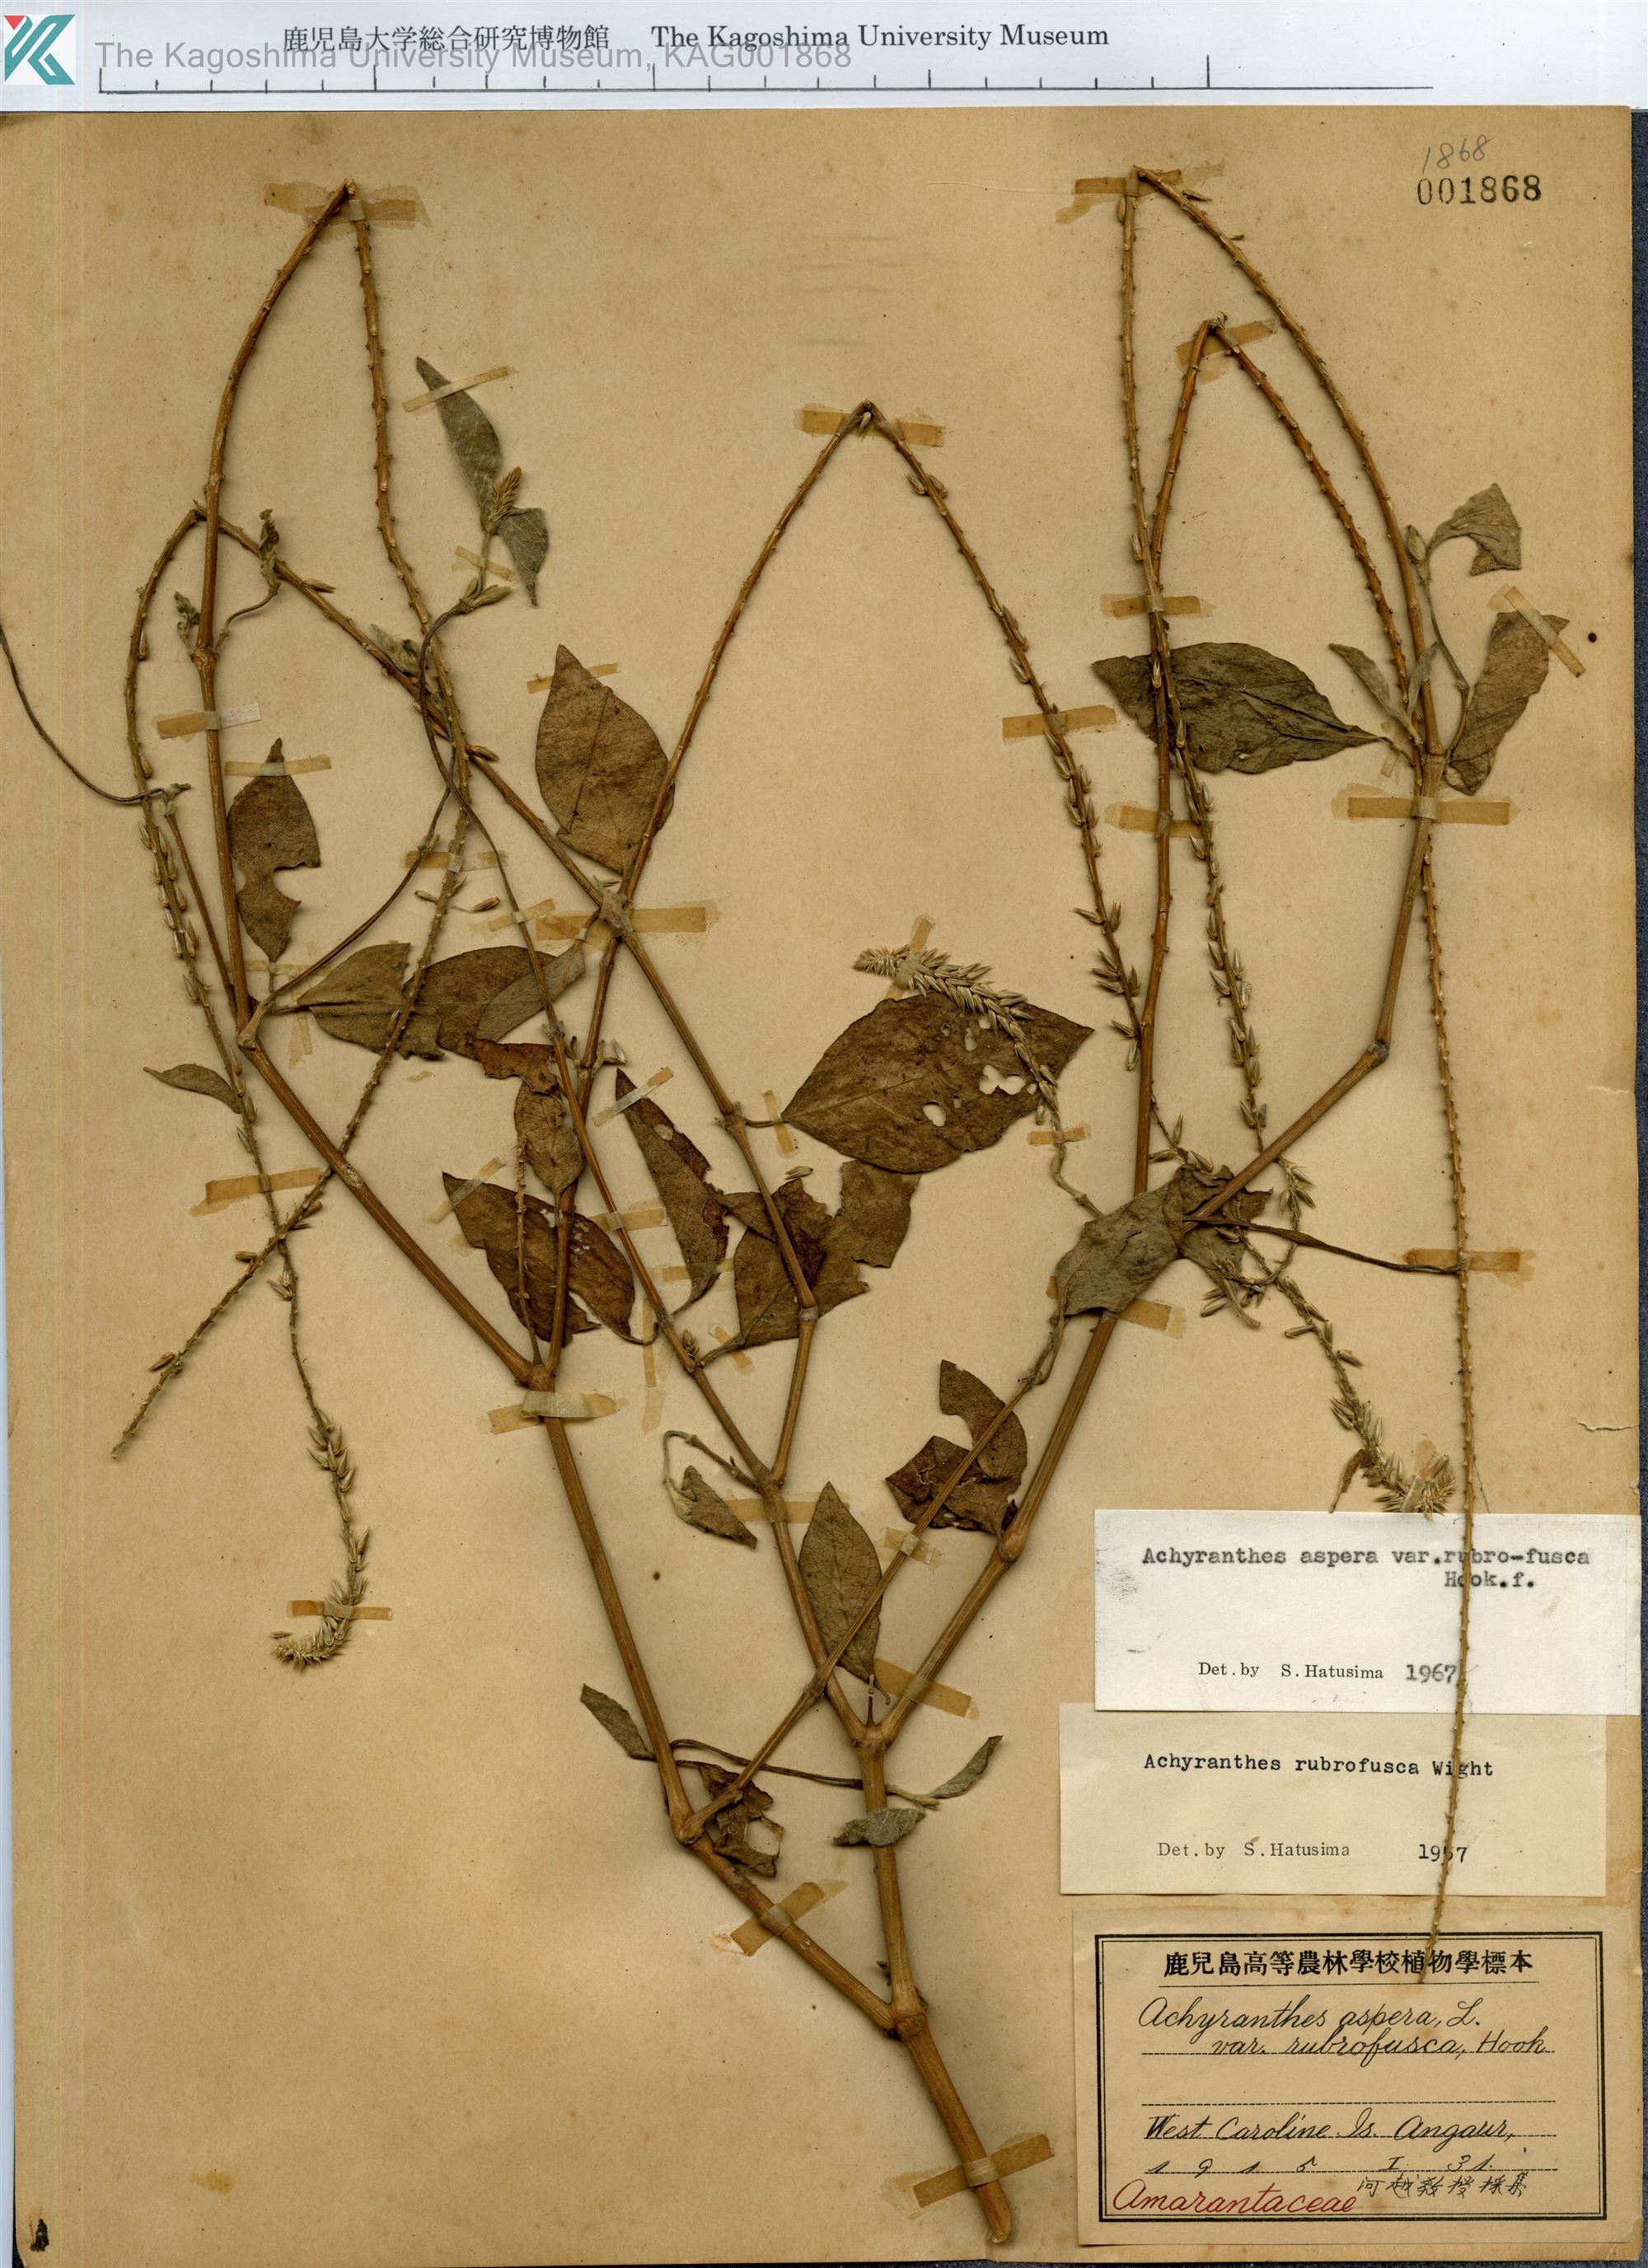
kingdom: Plantae
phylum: Tracheophyta
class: Magnoliopsida
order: Caryophyllales
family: Amaranthaceae
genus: Achyranthes
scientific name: Achyranthes aspera
